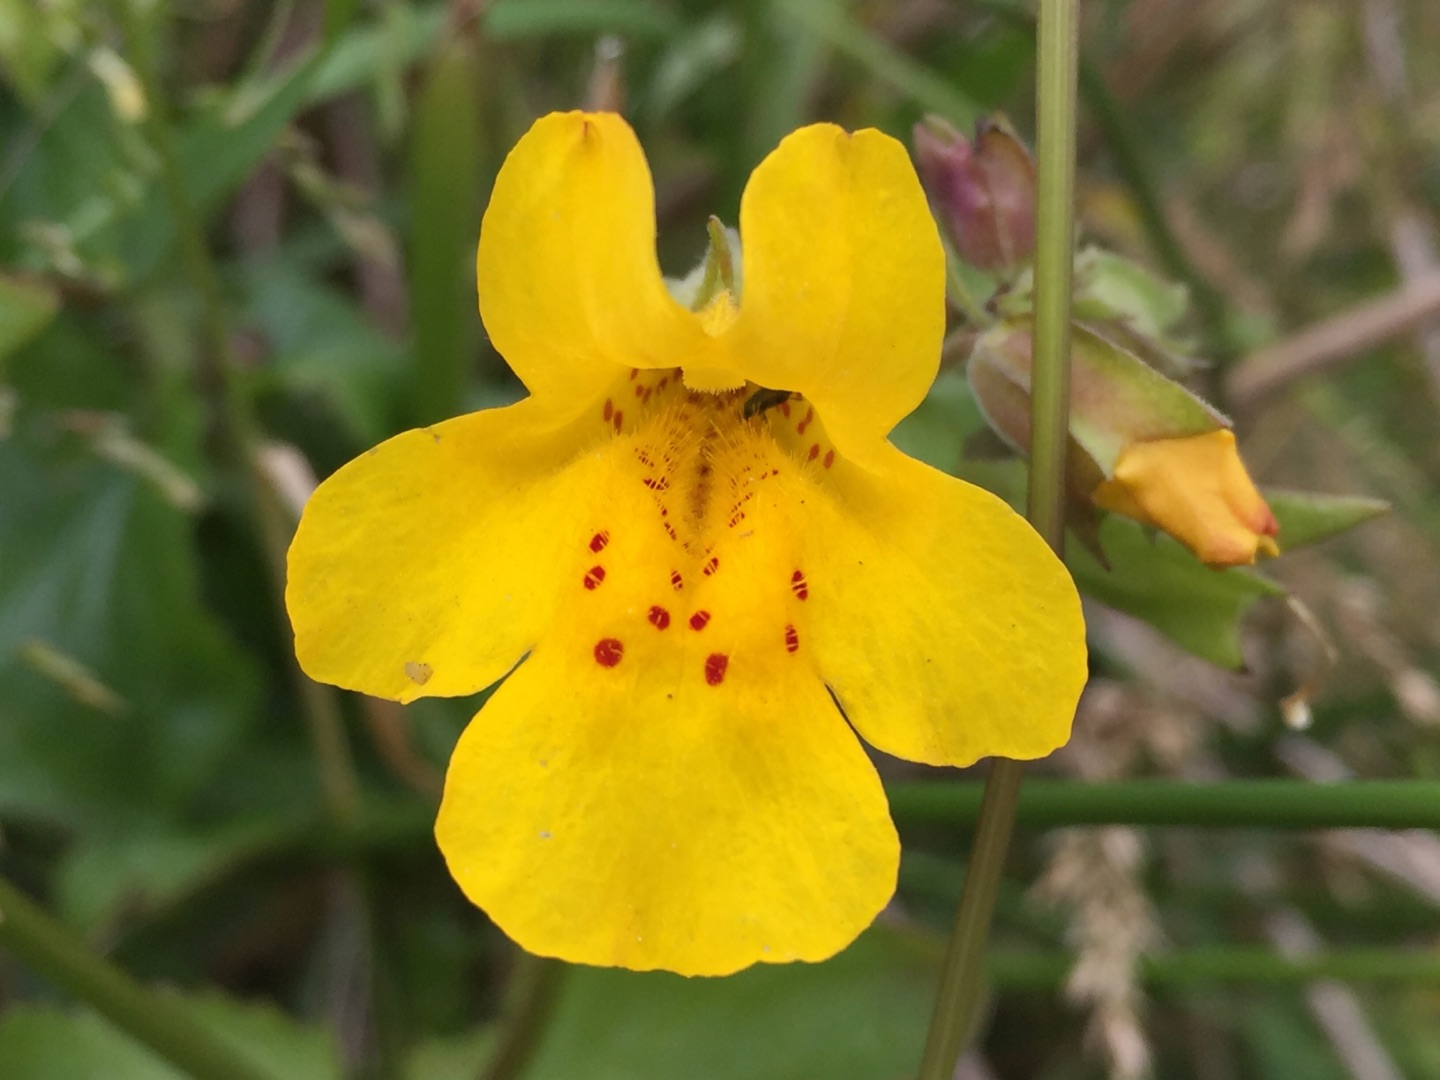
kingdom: Plantae
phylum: Tracheophyta
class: Magnoliopsida
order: Lamiales
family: Phrymaceae
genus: Erythranthe
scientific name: Erythranthe guttata
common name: Abeblomst
